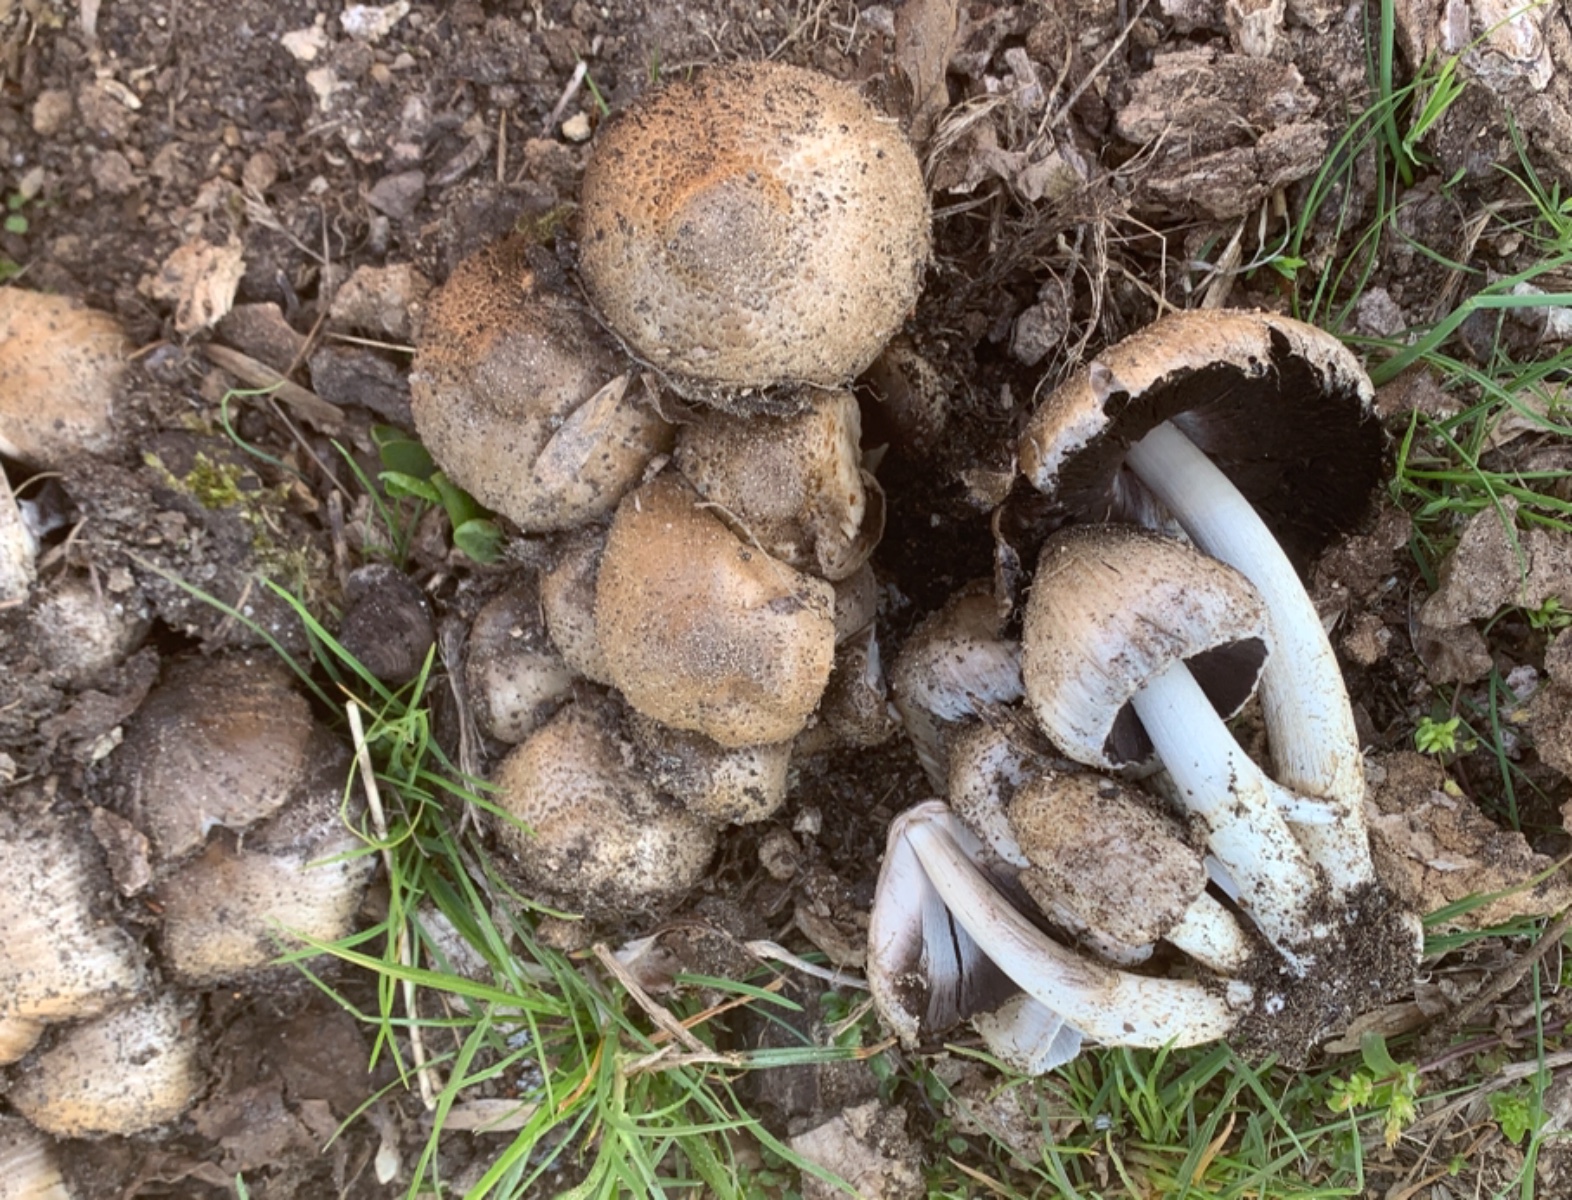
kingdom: Fungi
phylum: Basidiomycota
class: Agaricomycetes
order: Agaricales
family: Psathyrellaceae
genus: Coprinopsis
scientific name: Coprinopsis atramentaria
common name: almindelig blækhat
